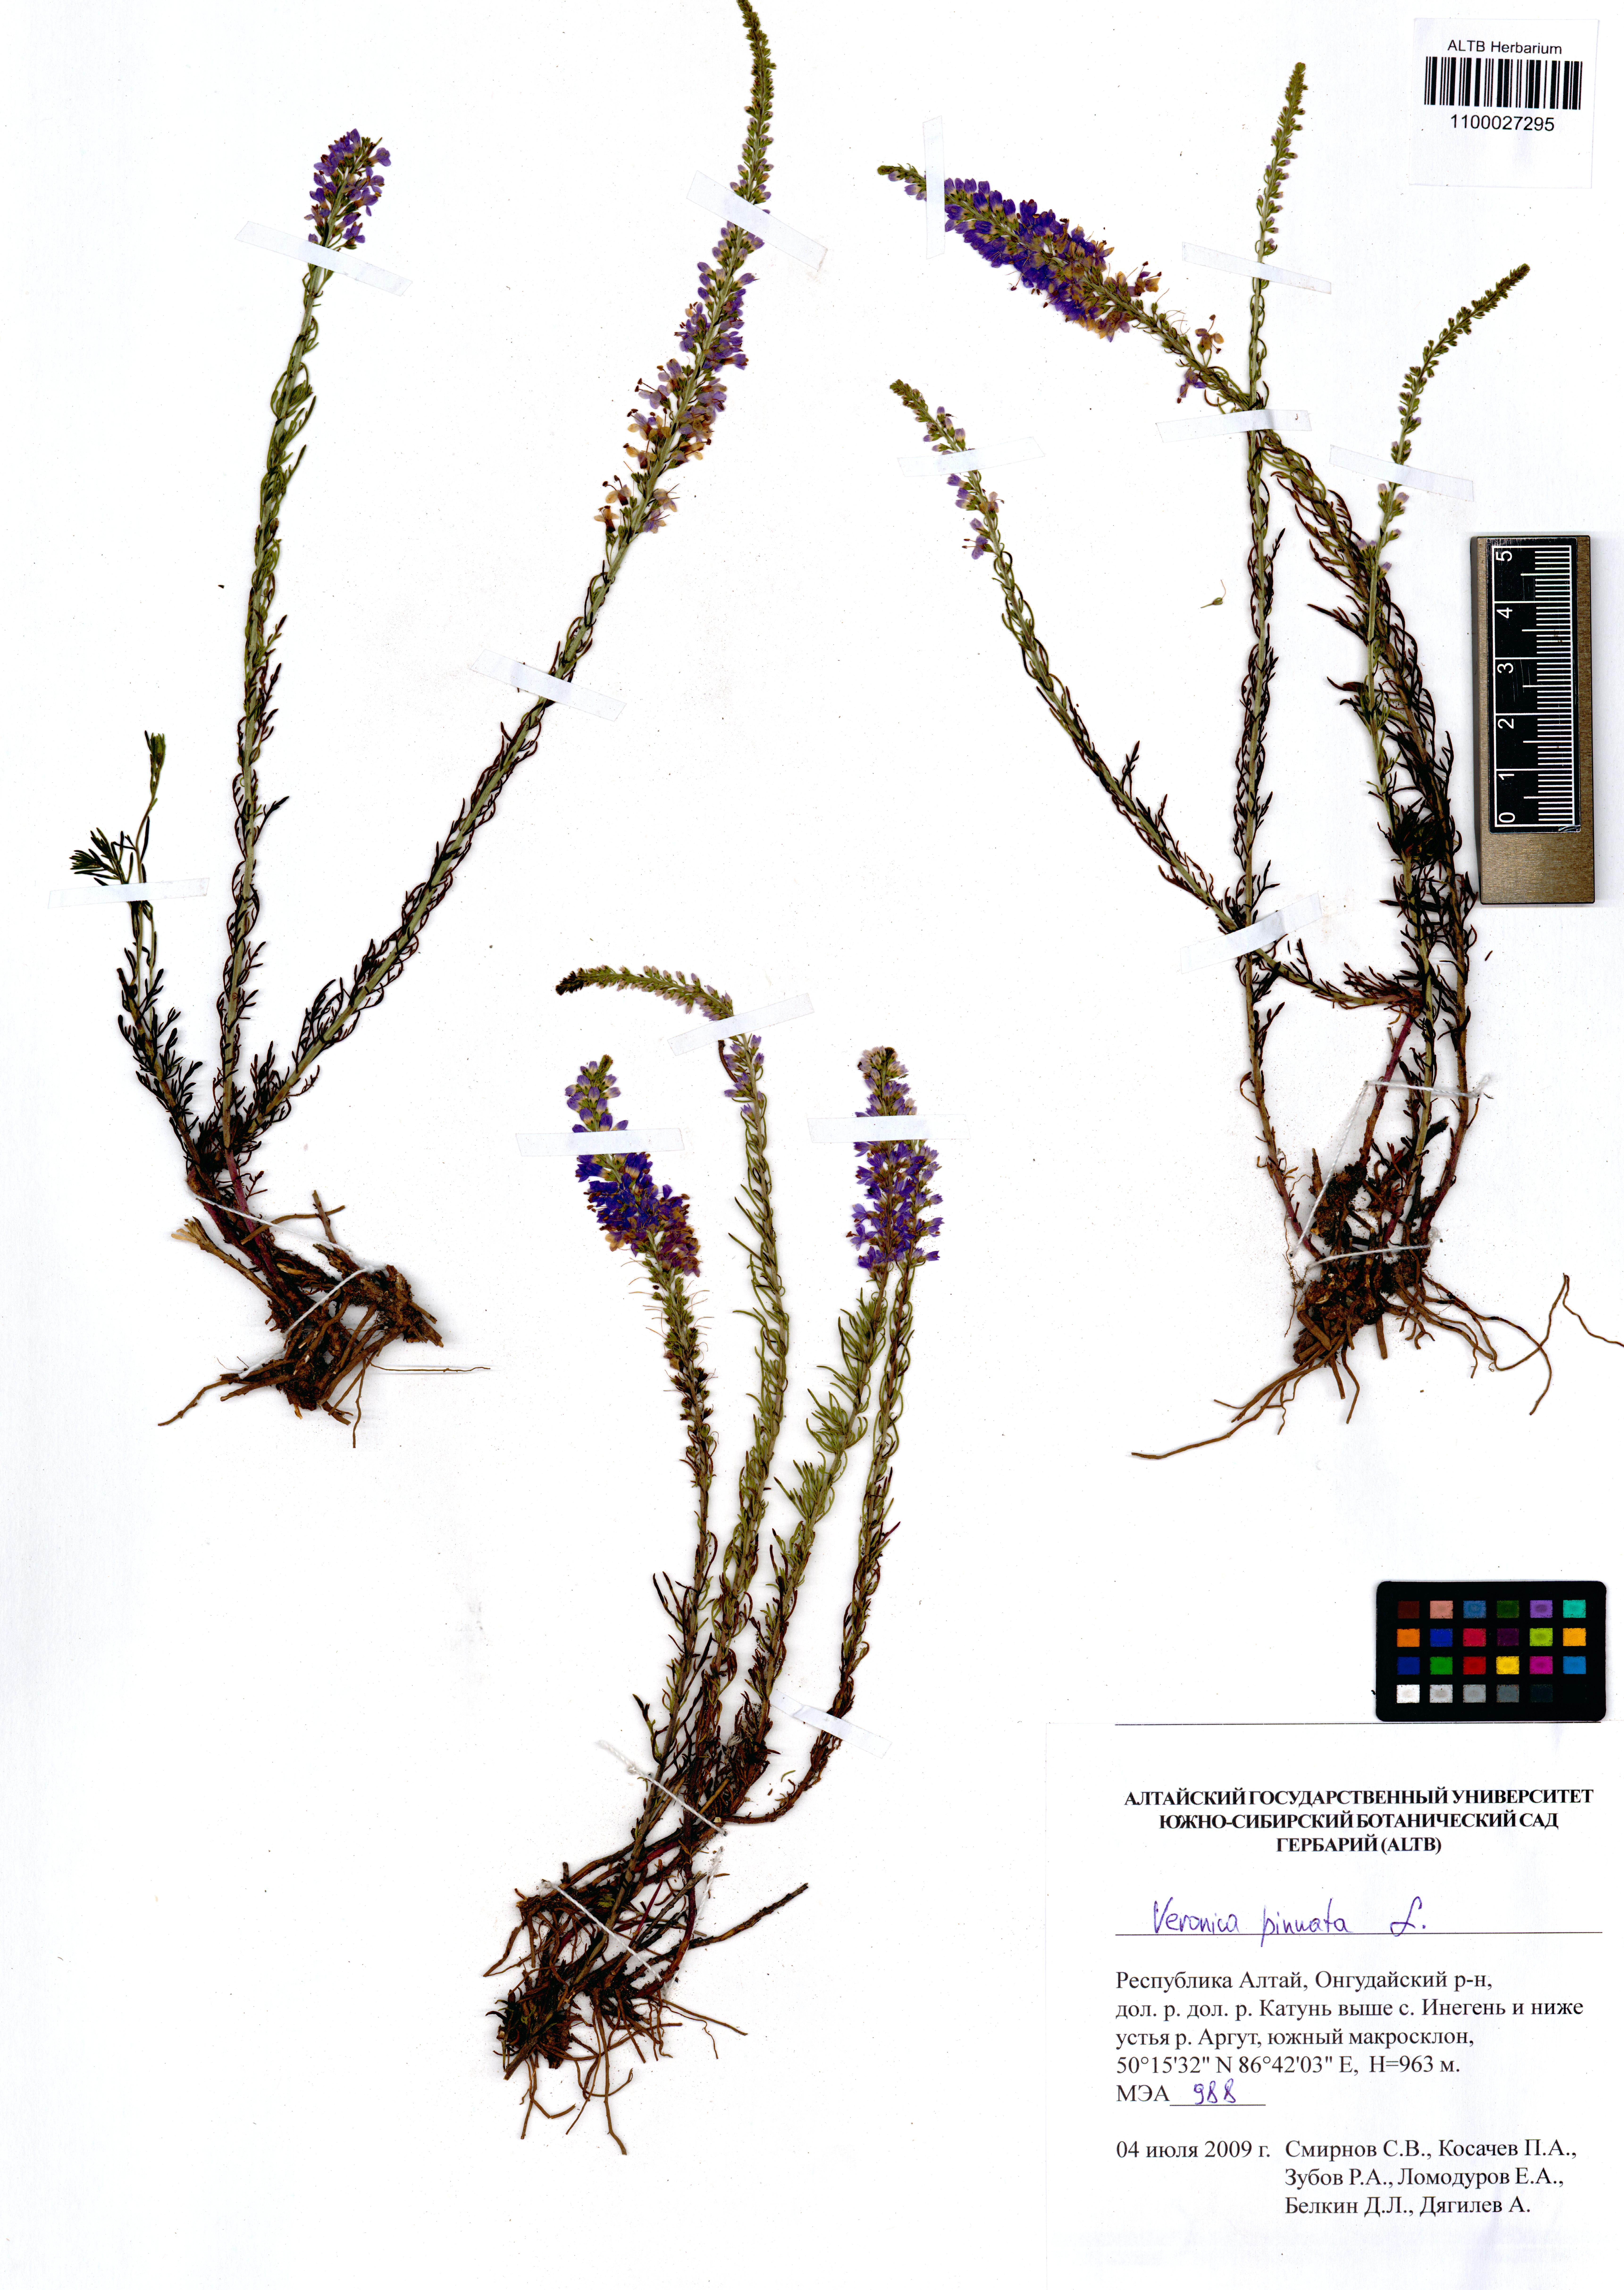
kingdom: Plantae
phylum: Tracheophyta
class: Magnoliopsida
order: Lamiales
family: Plantaginaceae
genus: Veronica
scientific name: Veronica pinnata
